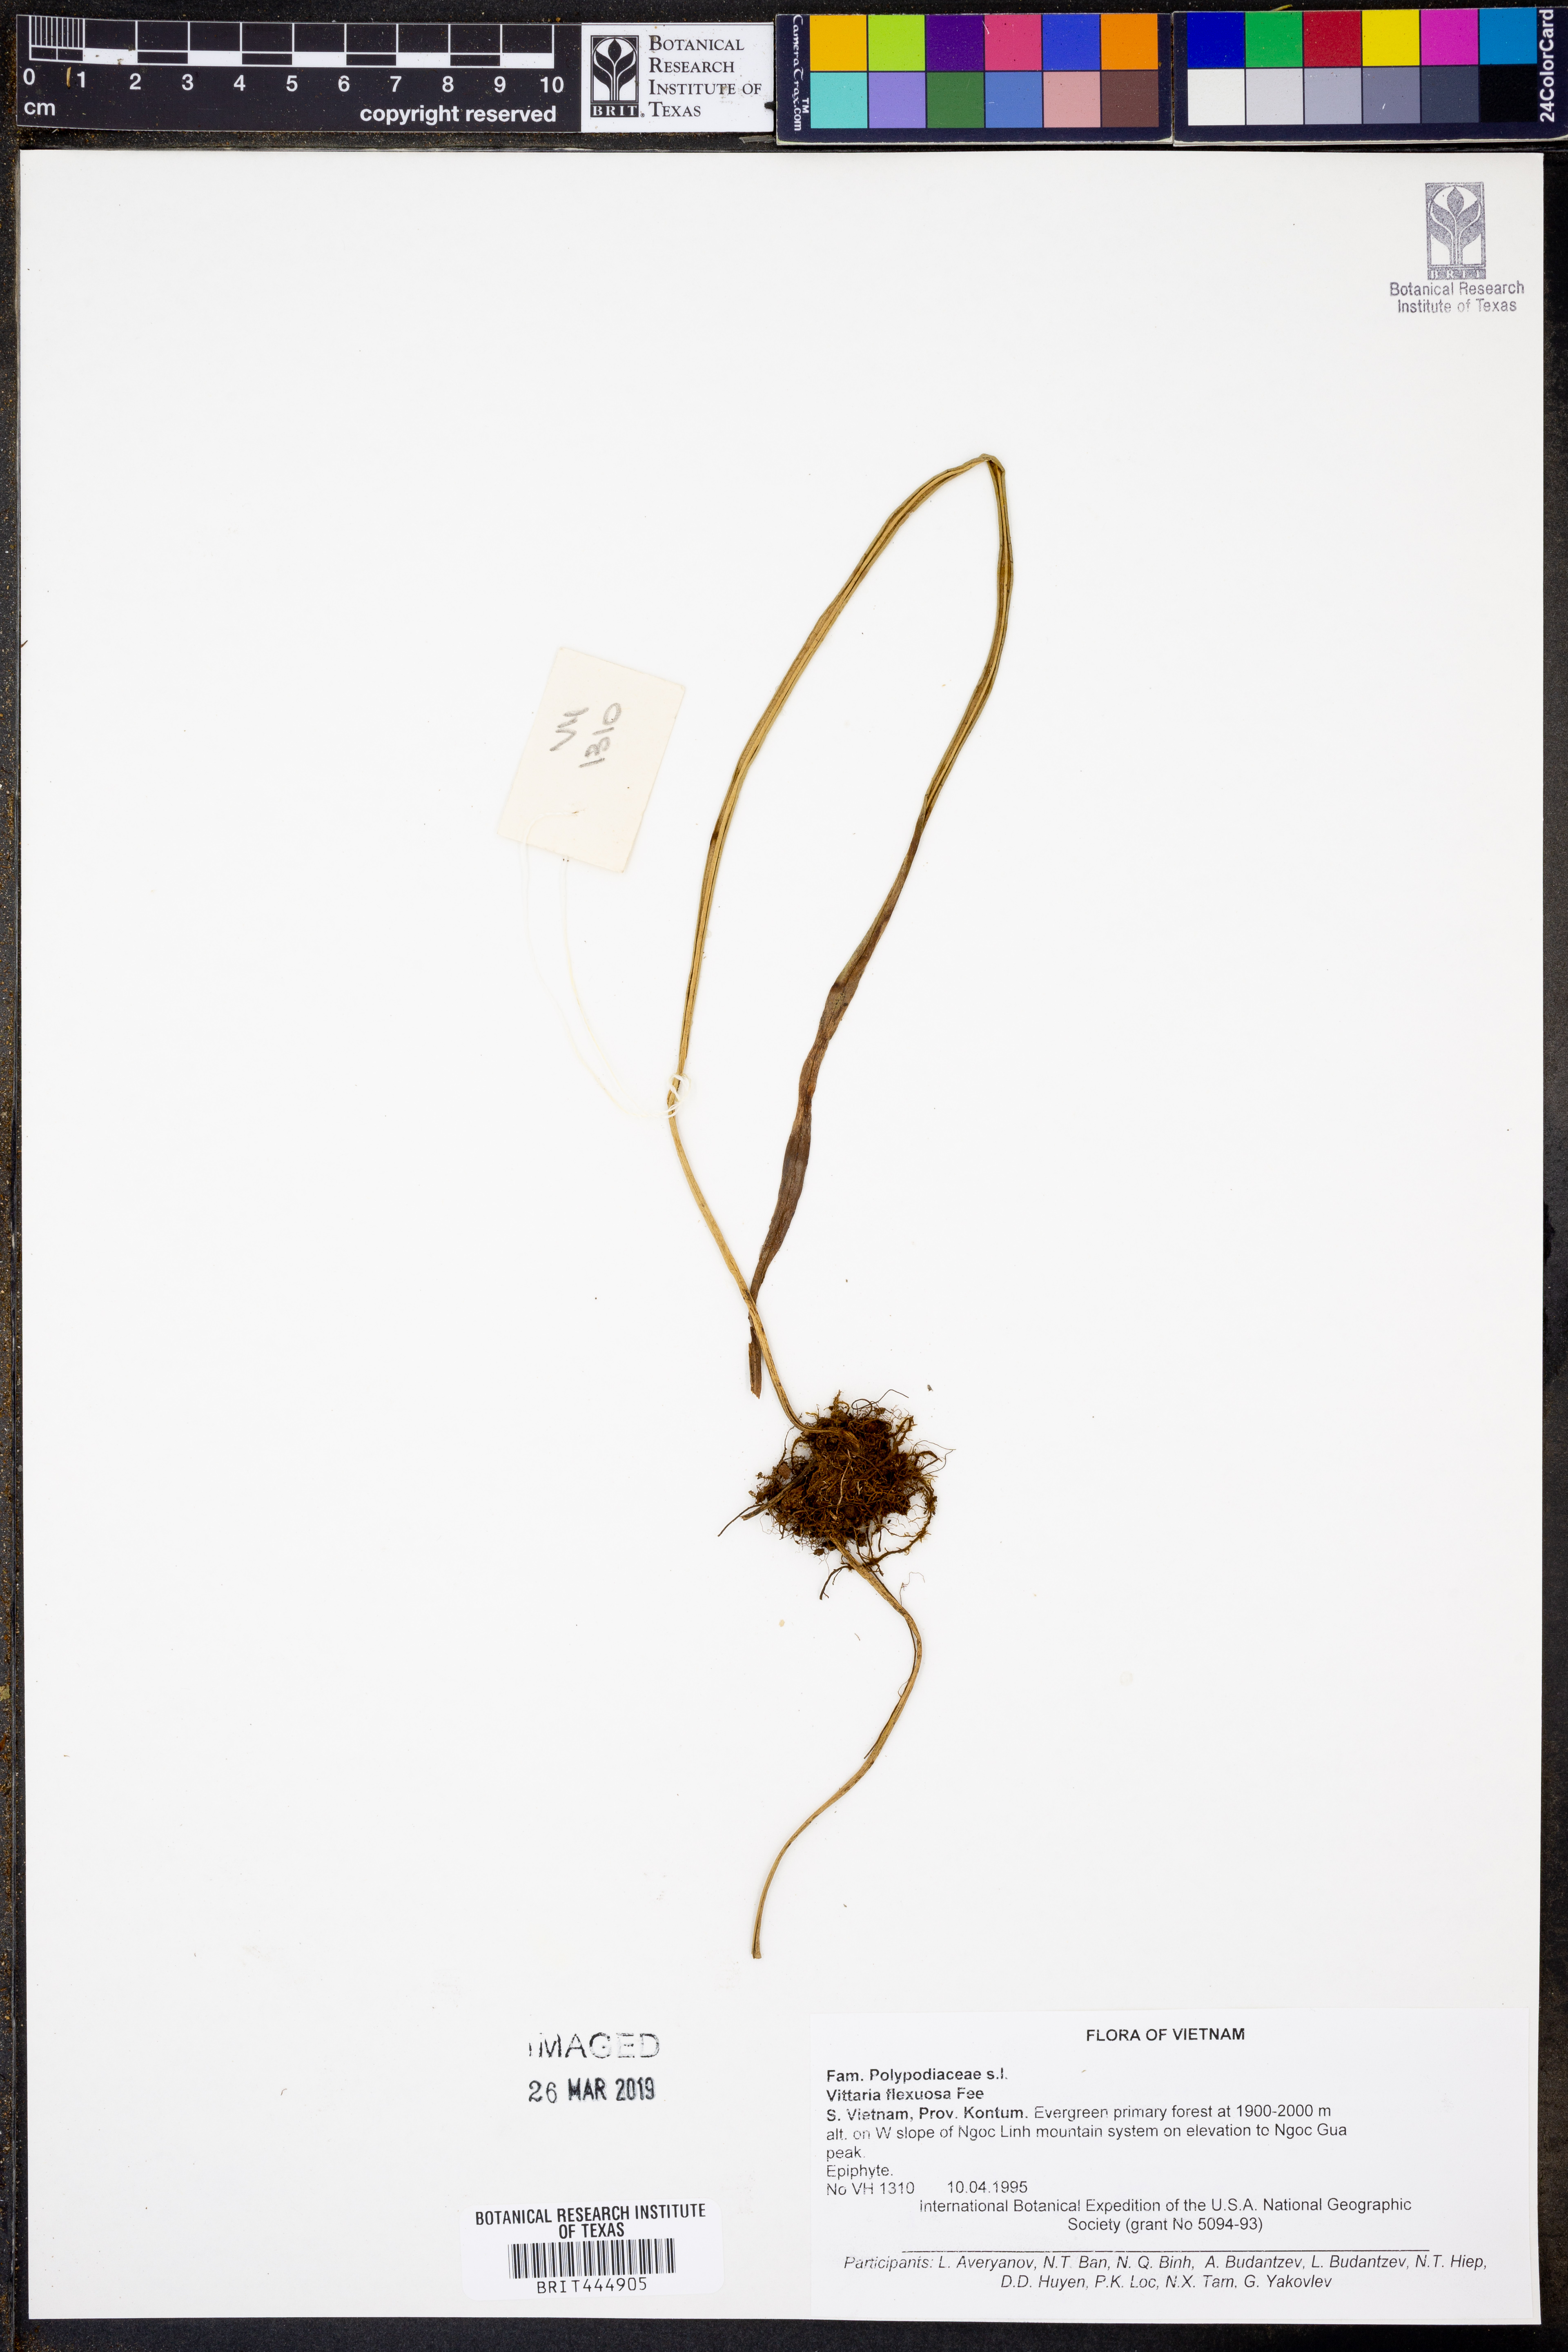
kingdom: Plantae
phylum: Tracheophyta
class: Polypodiopsida
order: Polypodiales
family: Pteridaceae
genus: Haplopteris
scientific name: Haplopteris flexuosa
